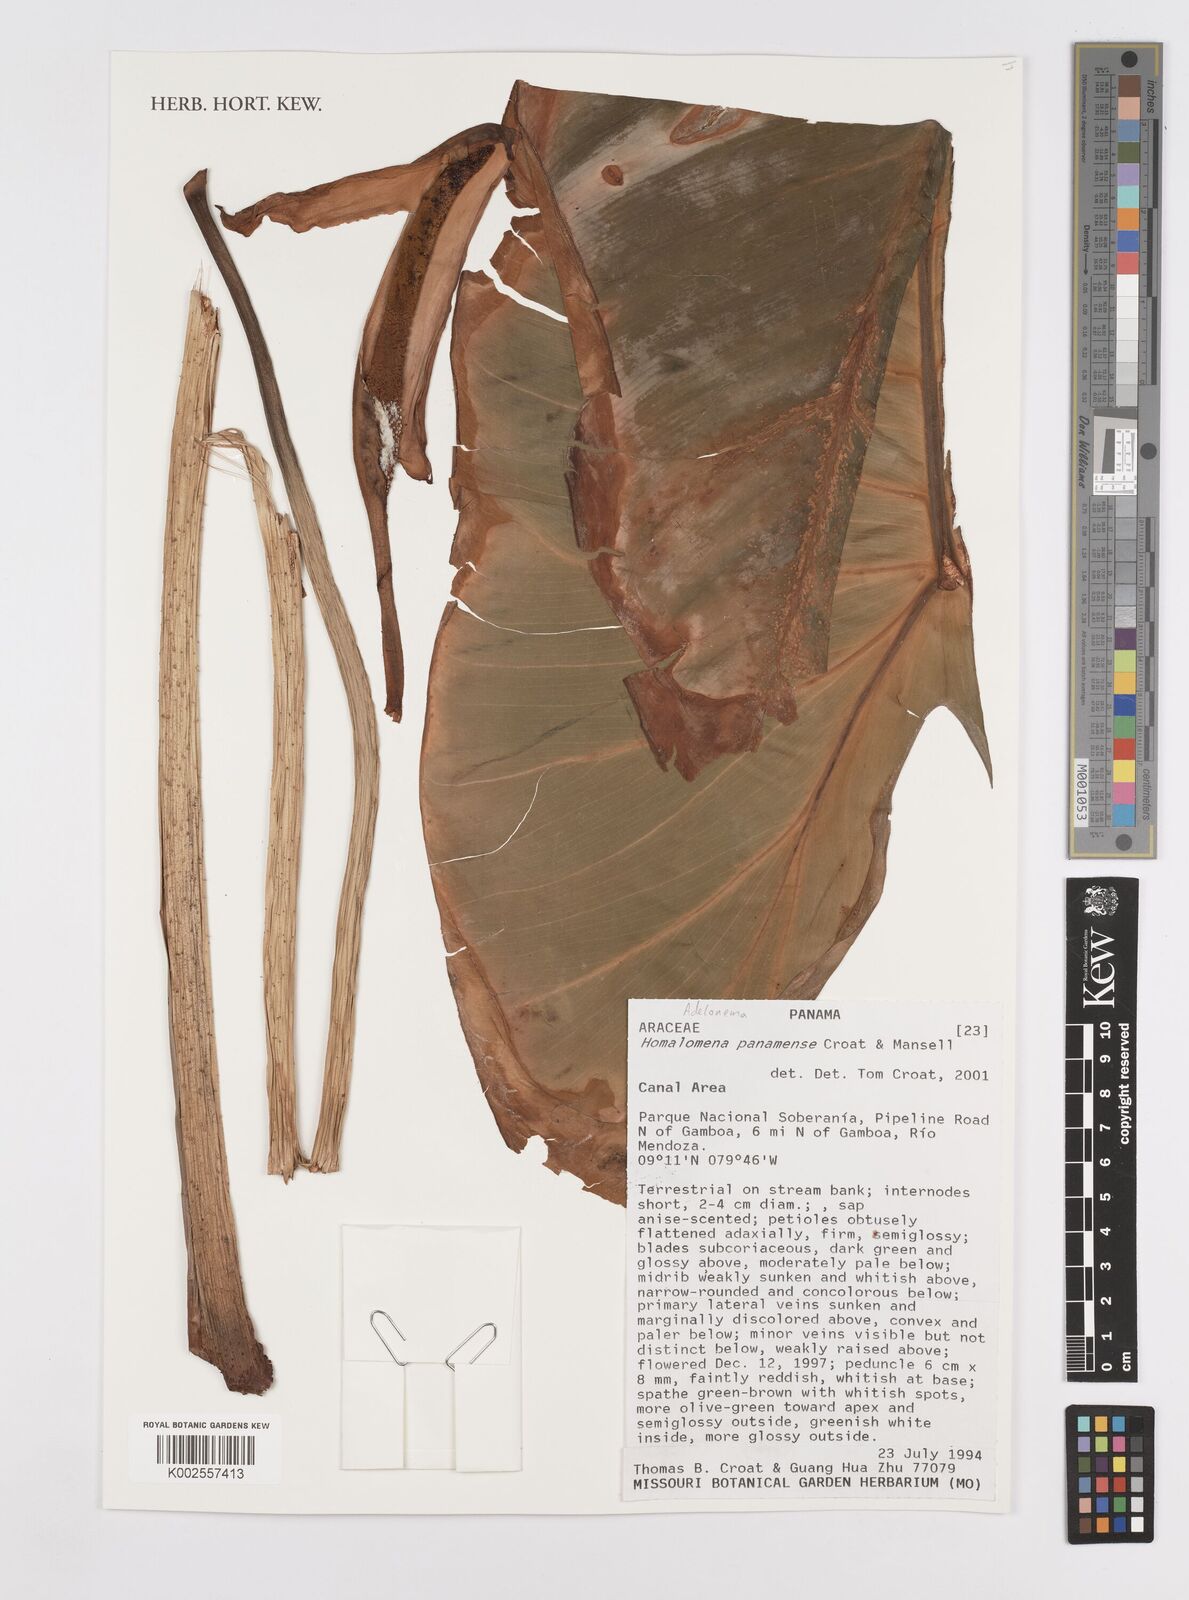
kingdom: Plantae
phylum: Tracheophyta
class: Liliopsida
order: Alismatales
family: Araceae
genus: Adelonema
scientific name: Adelonema panamense
